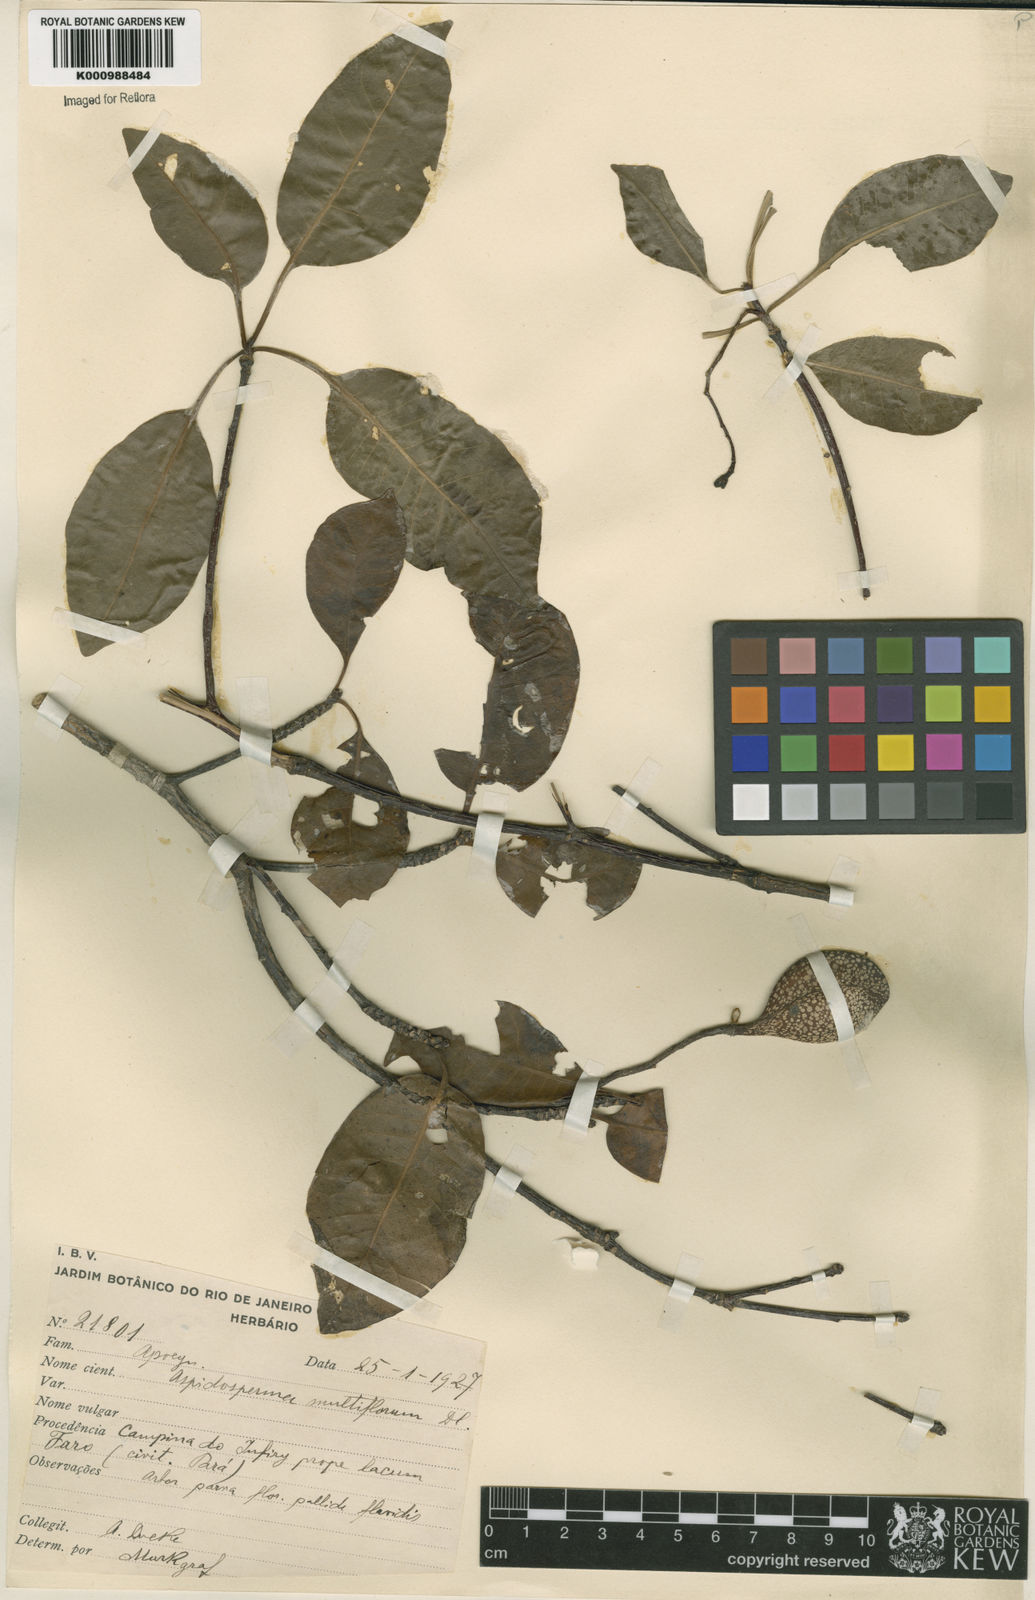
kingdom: Plantae
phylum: Tracheophyta
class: Magnoliopsida
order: Gentianales
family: Apocynaceae
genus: Aspidosperma
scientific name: Aspidosperma multiflorum
